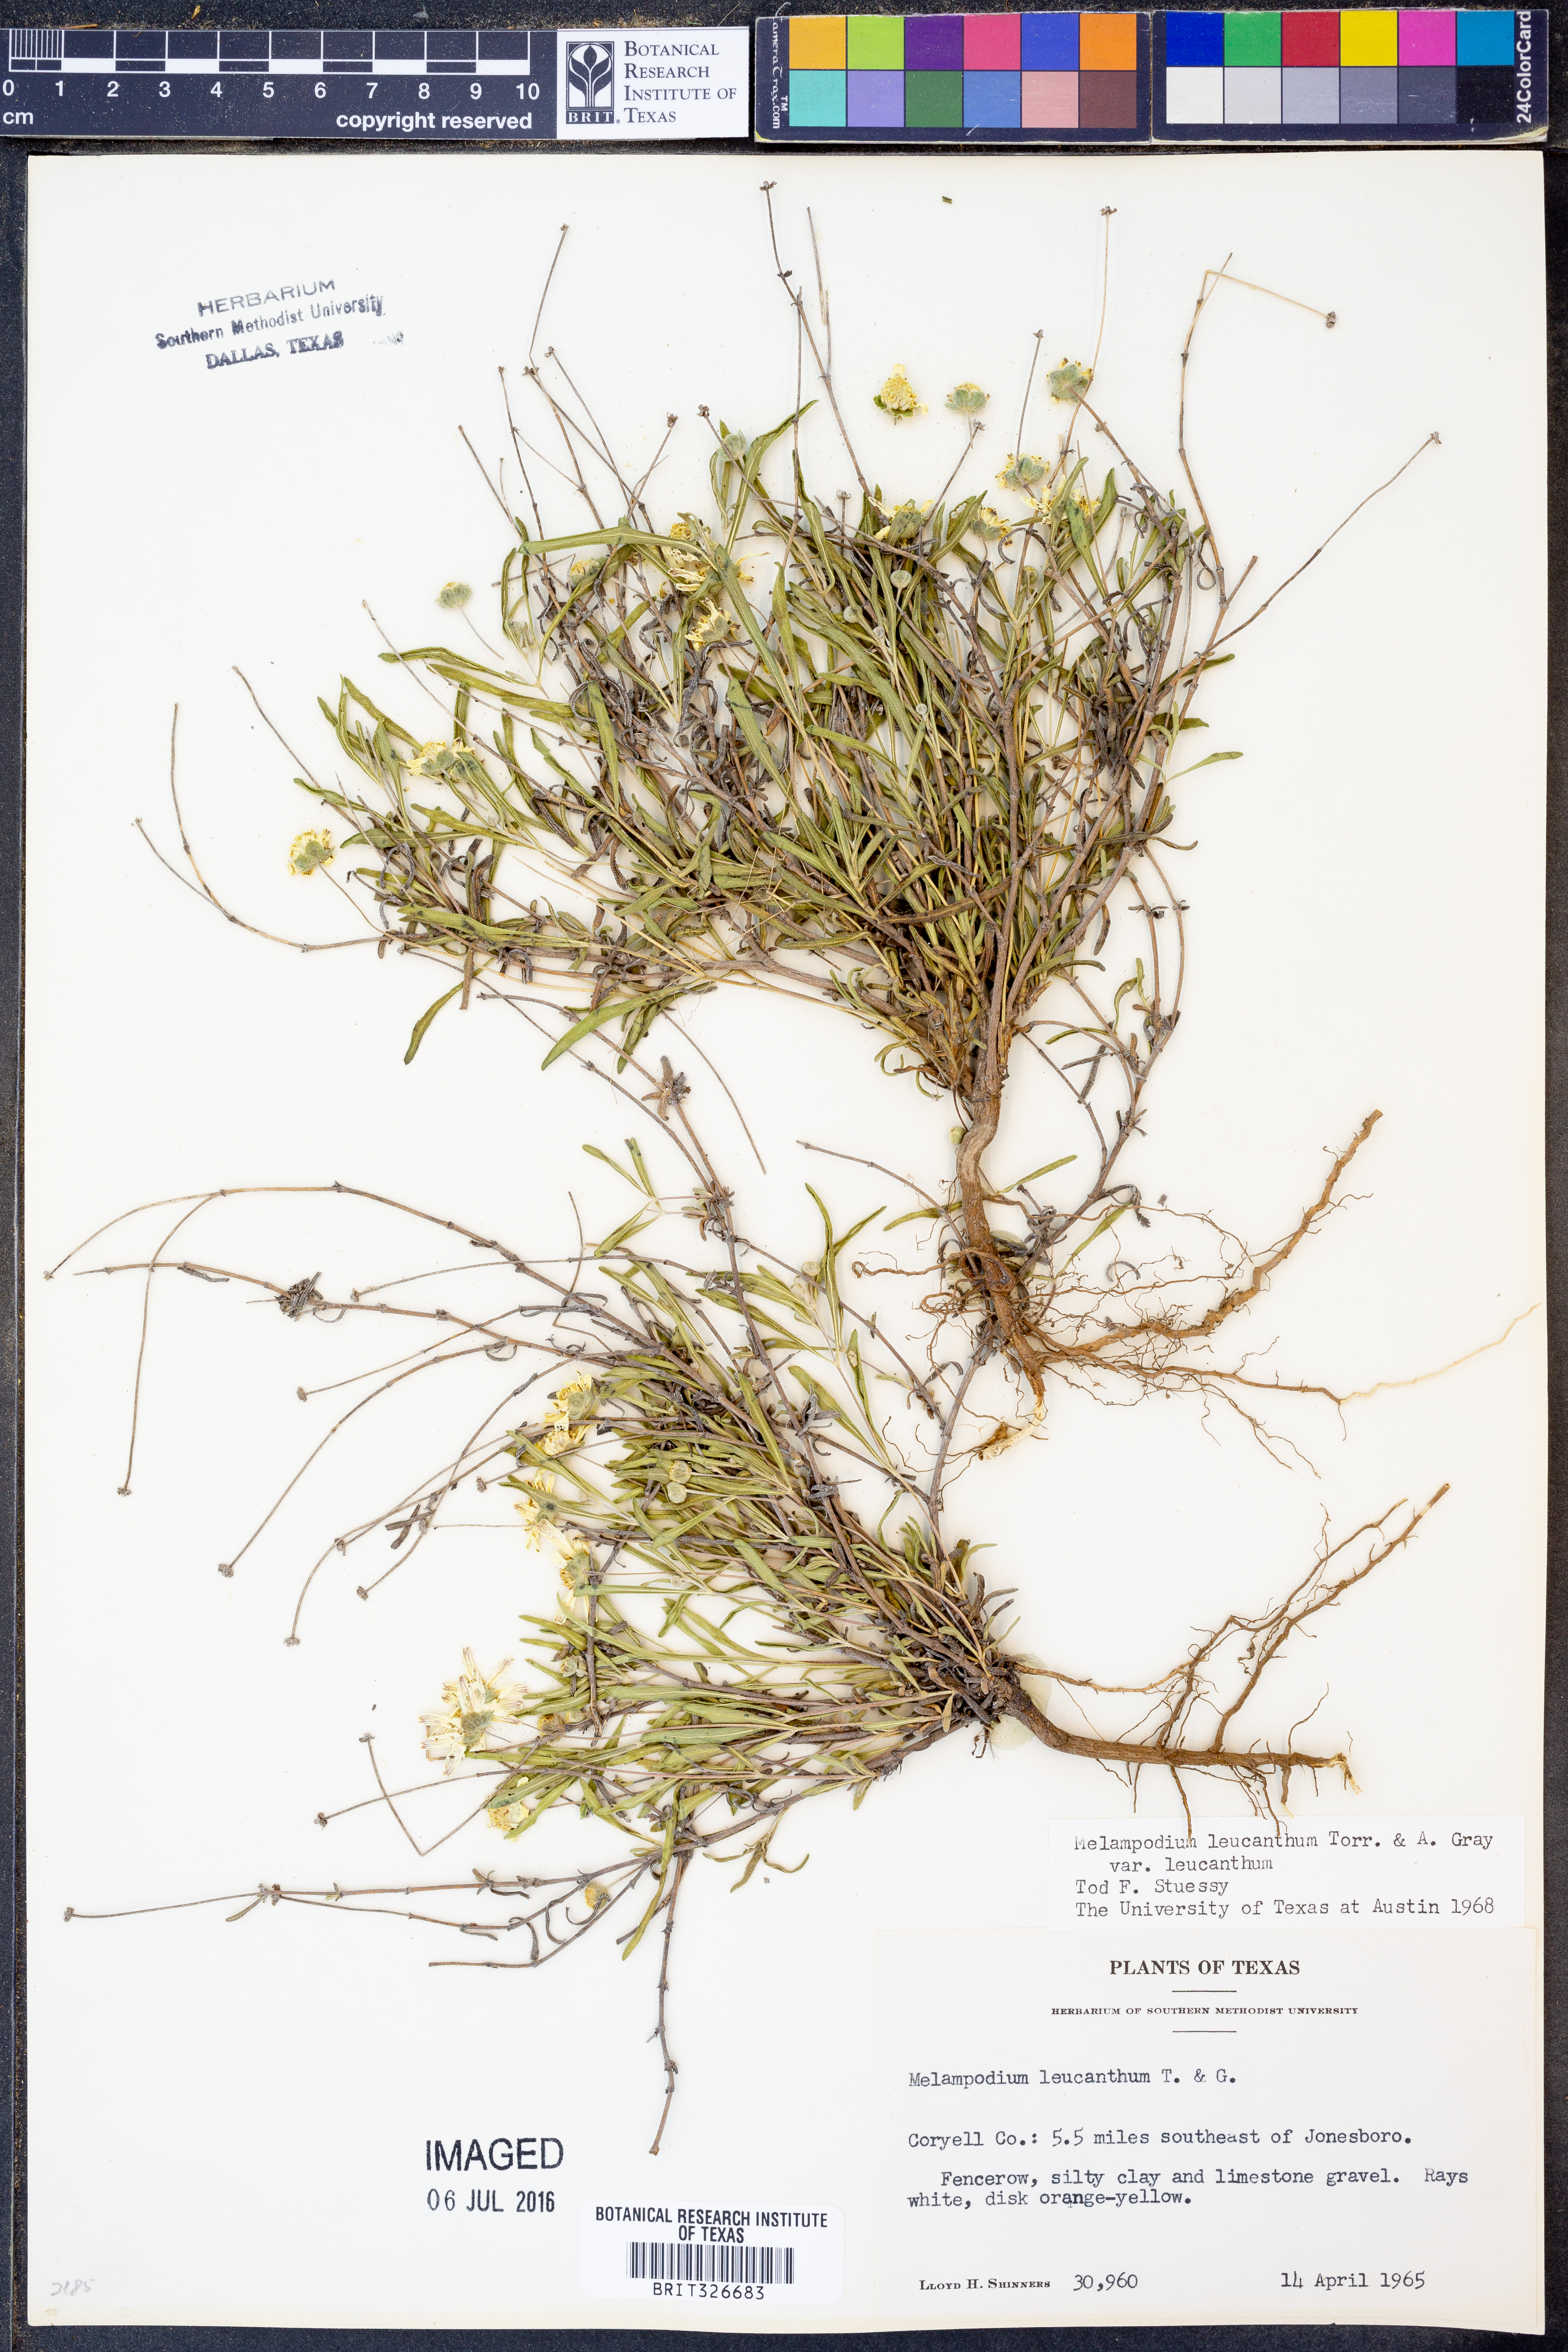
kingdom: Plantae
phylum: Tracheophyta
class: Magnoliopsida
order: Asterales
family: Asteraceae
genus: Melampodium
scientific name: Melampodium leucanthum
